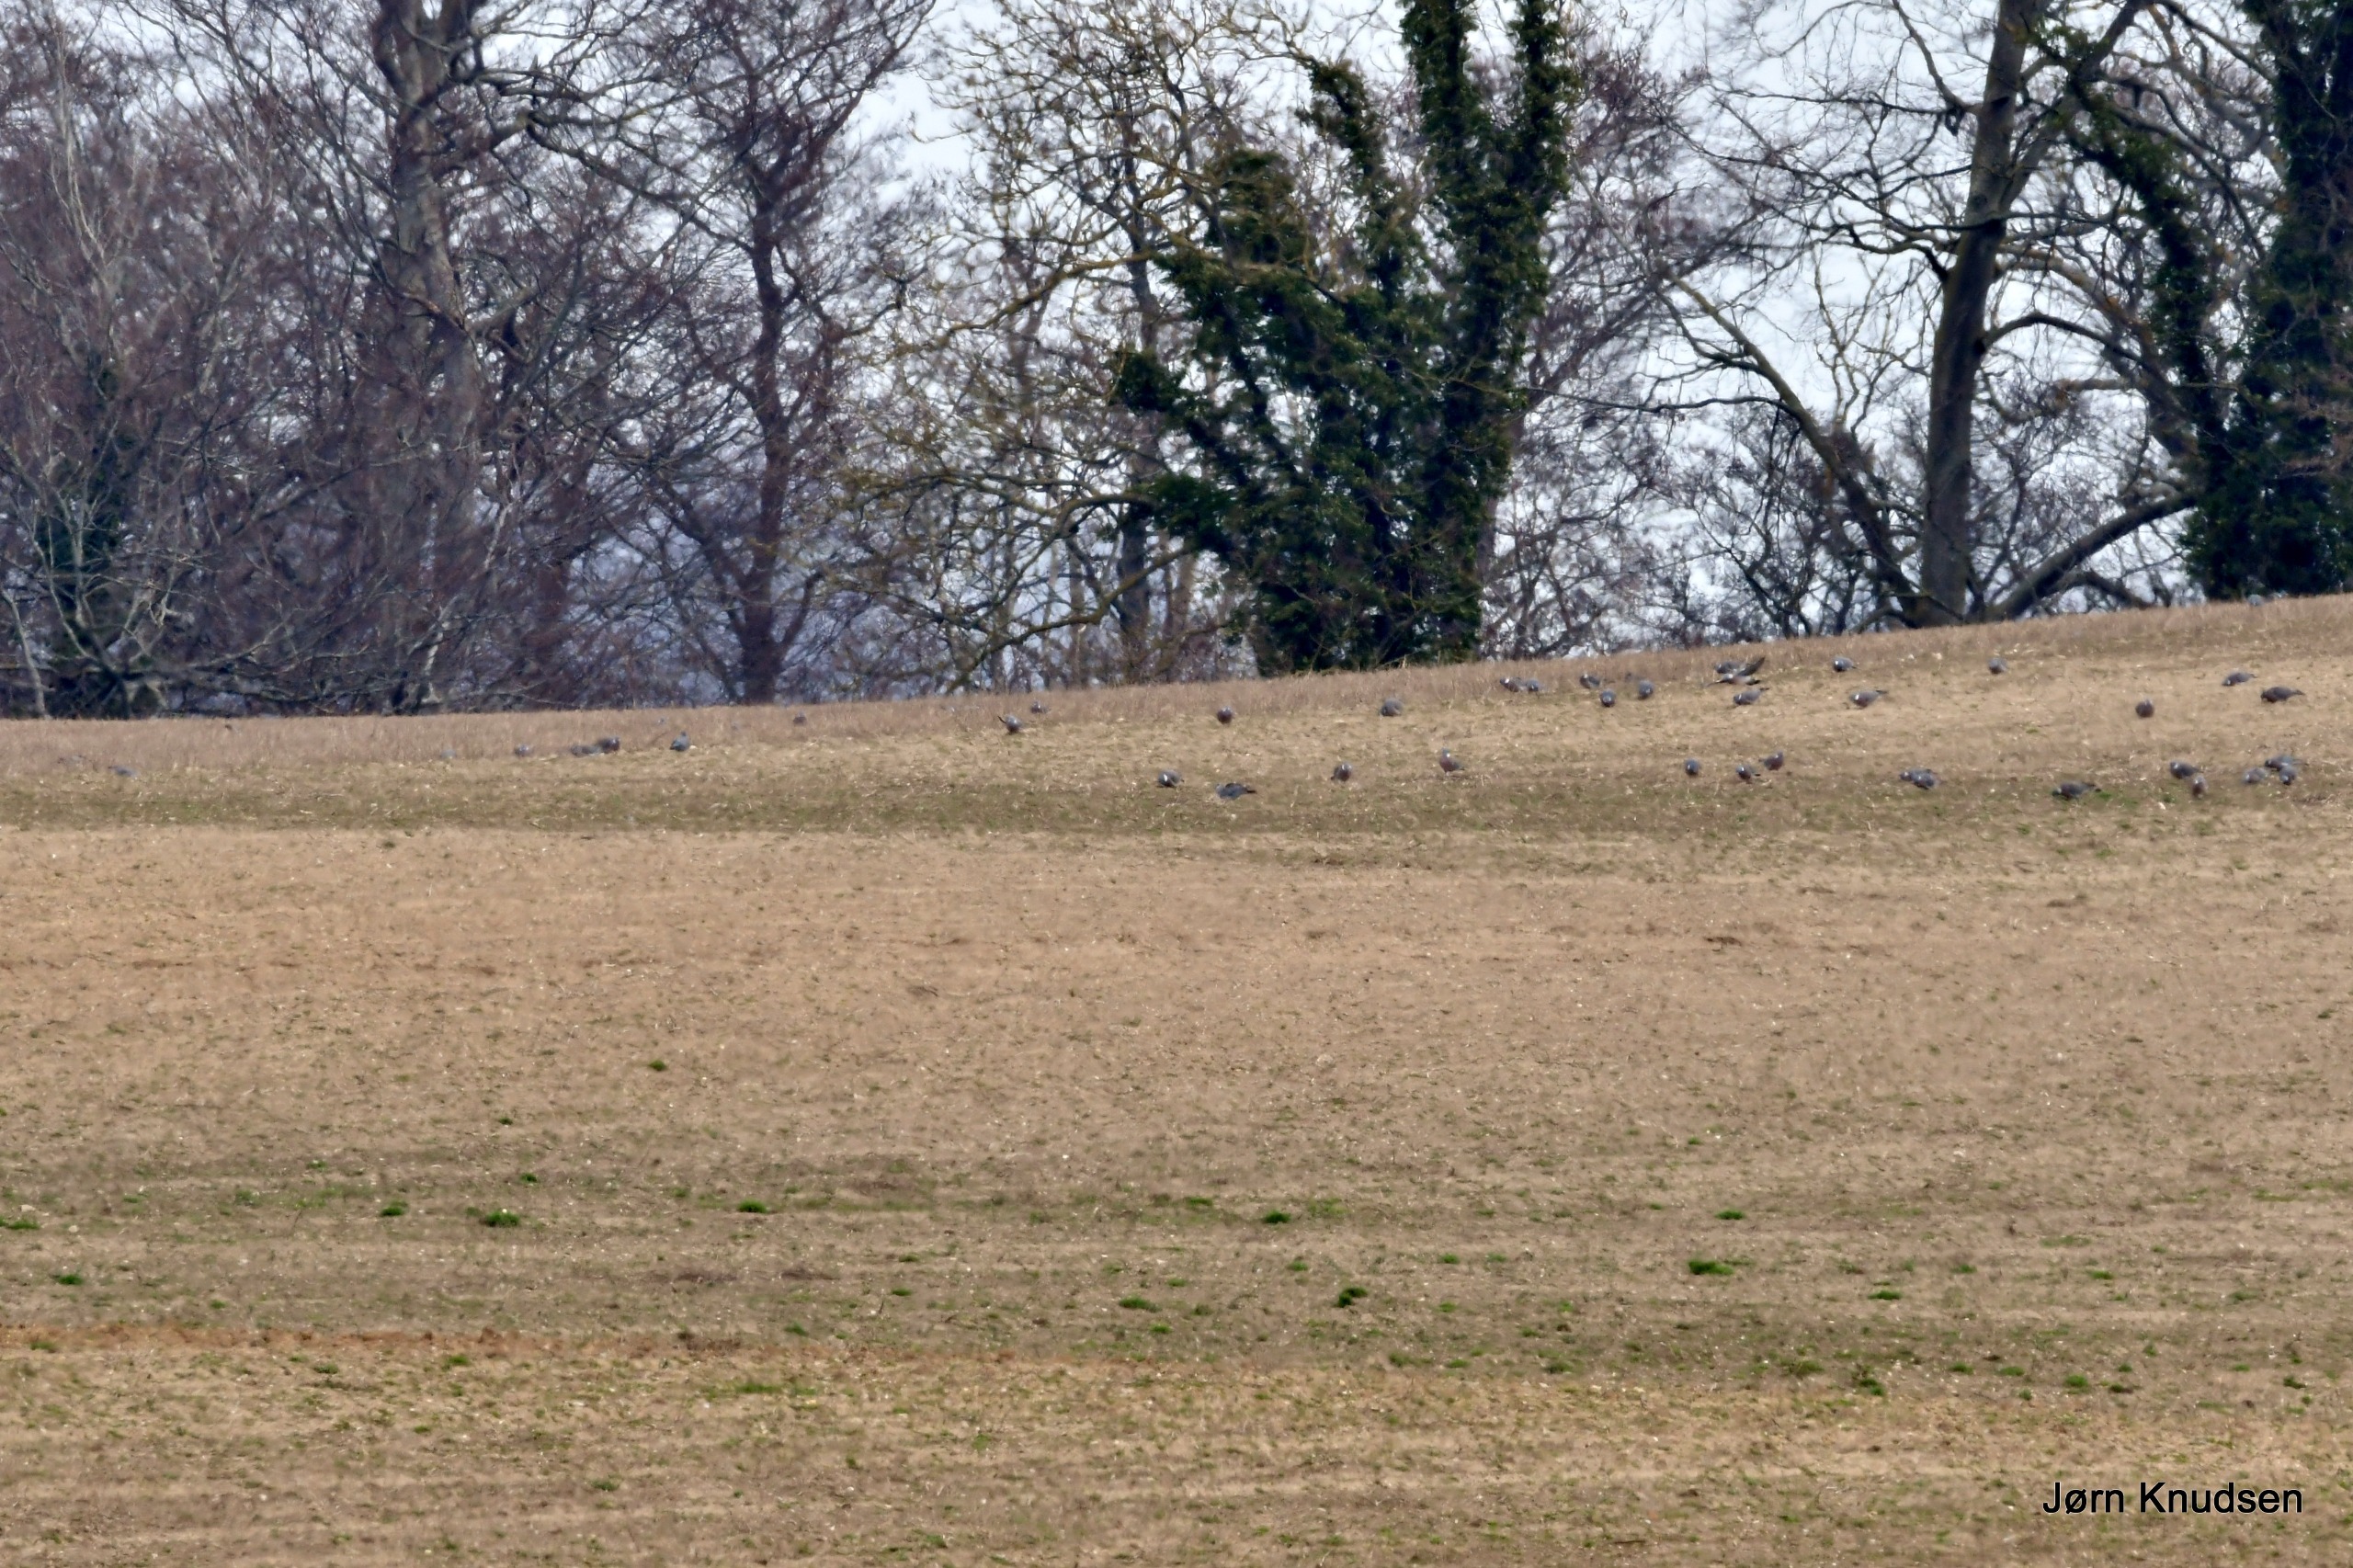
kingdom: Animalia
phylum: Chordata
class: Aves
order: Columbiformes
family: Columbidae
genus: Columba
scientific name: Columba palumbus
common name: Ringdue
